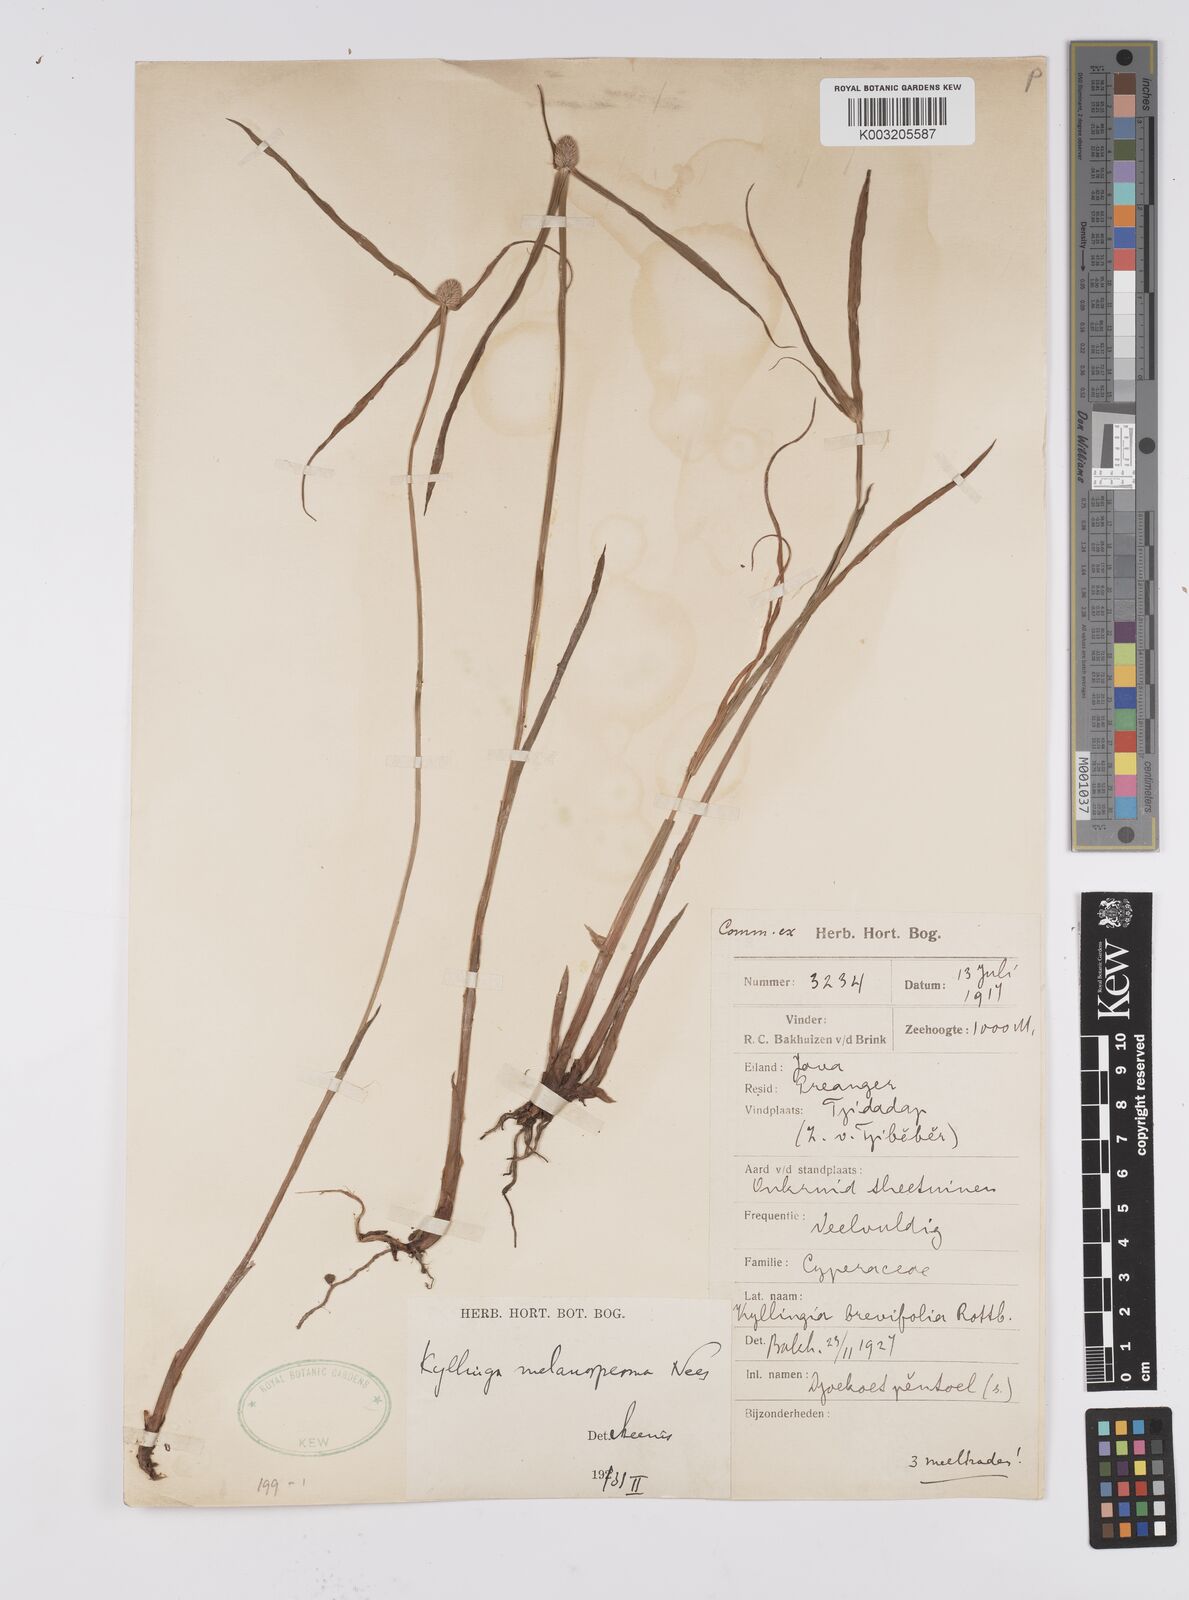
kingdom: Plantae
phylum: Tracheophyta
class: Liliopsida
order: Poales
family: Cyperaceae
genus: Cyperus
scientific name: Cyperus melanospermus
